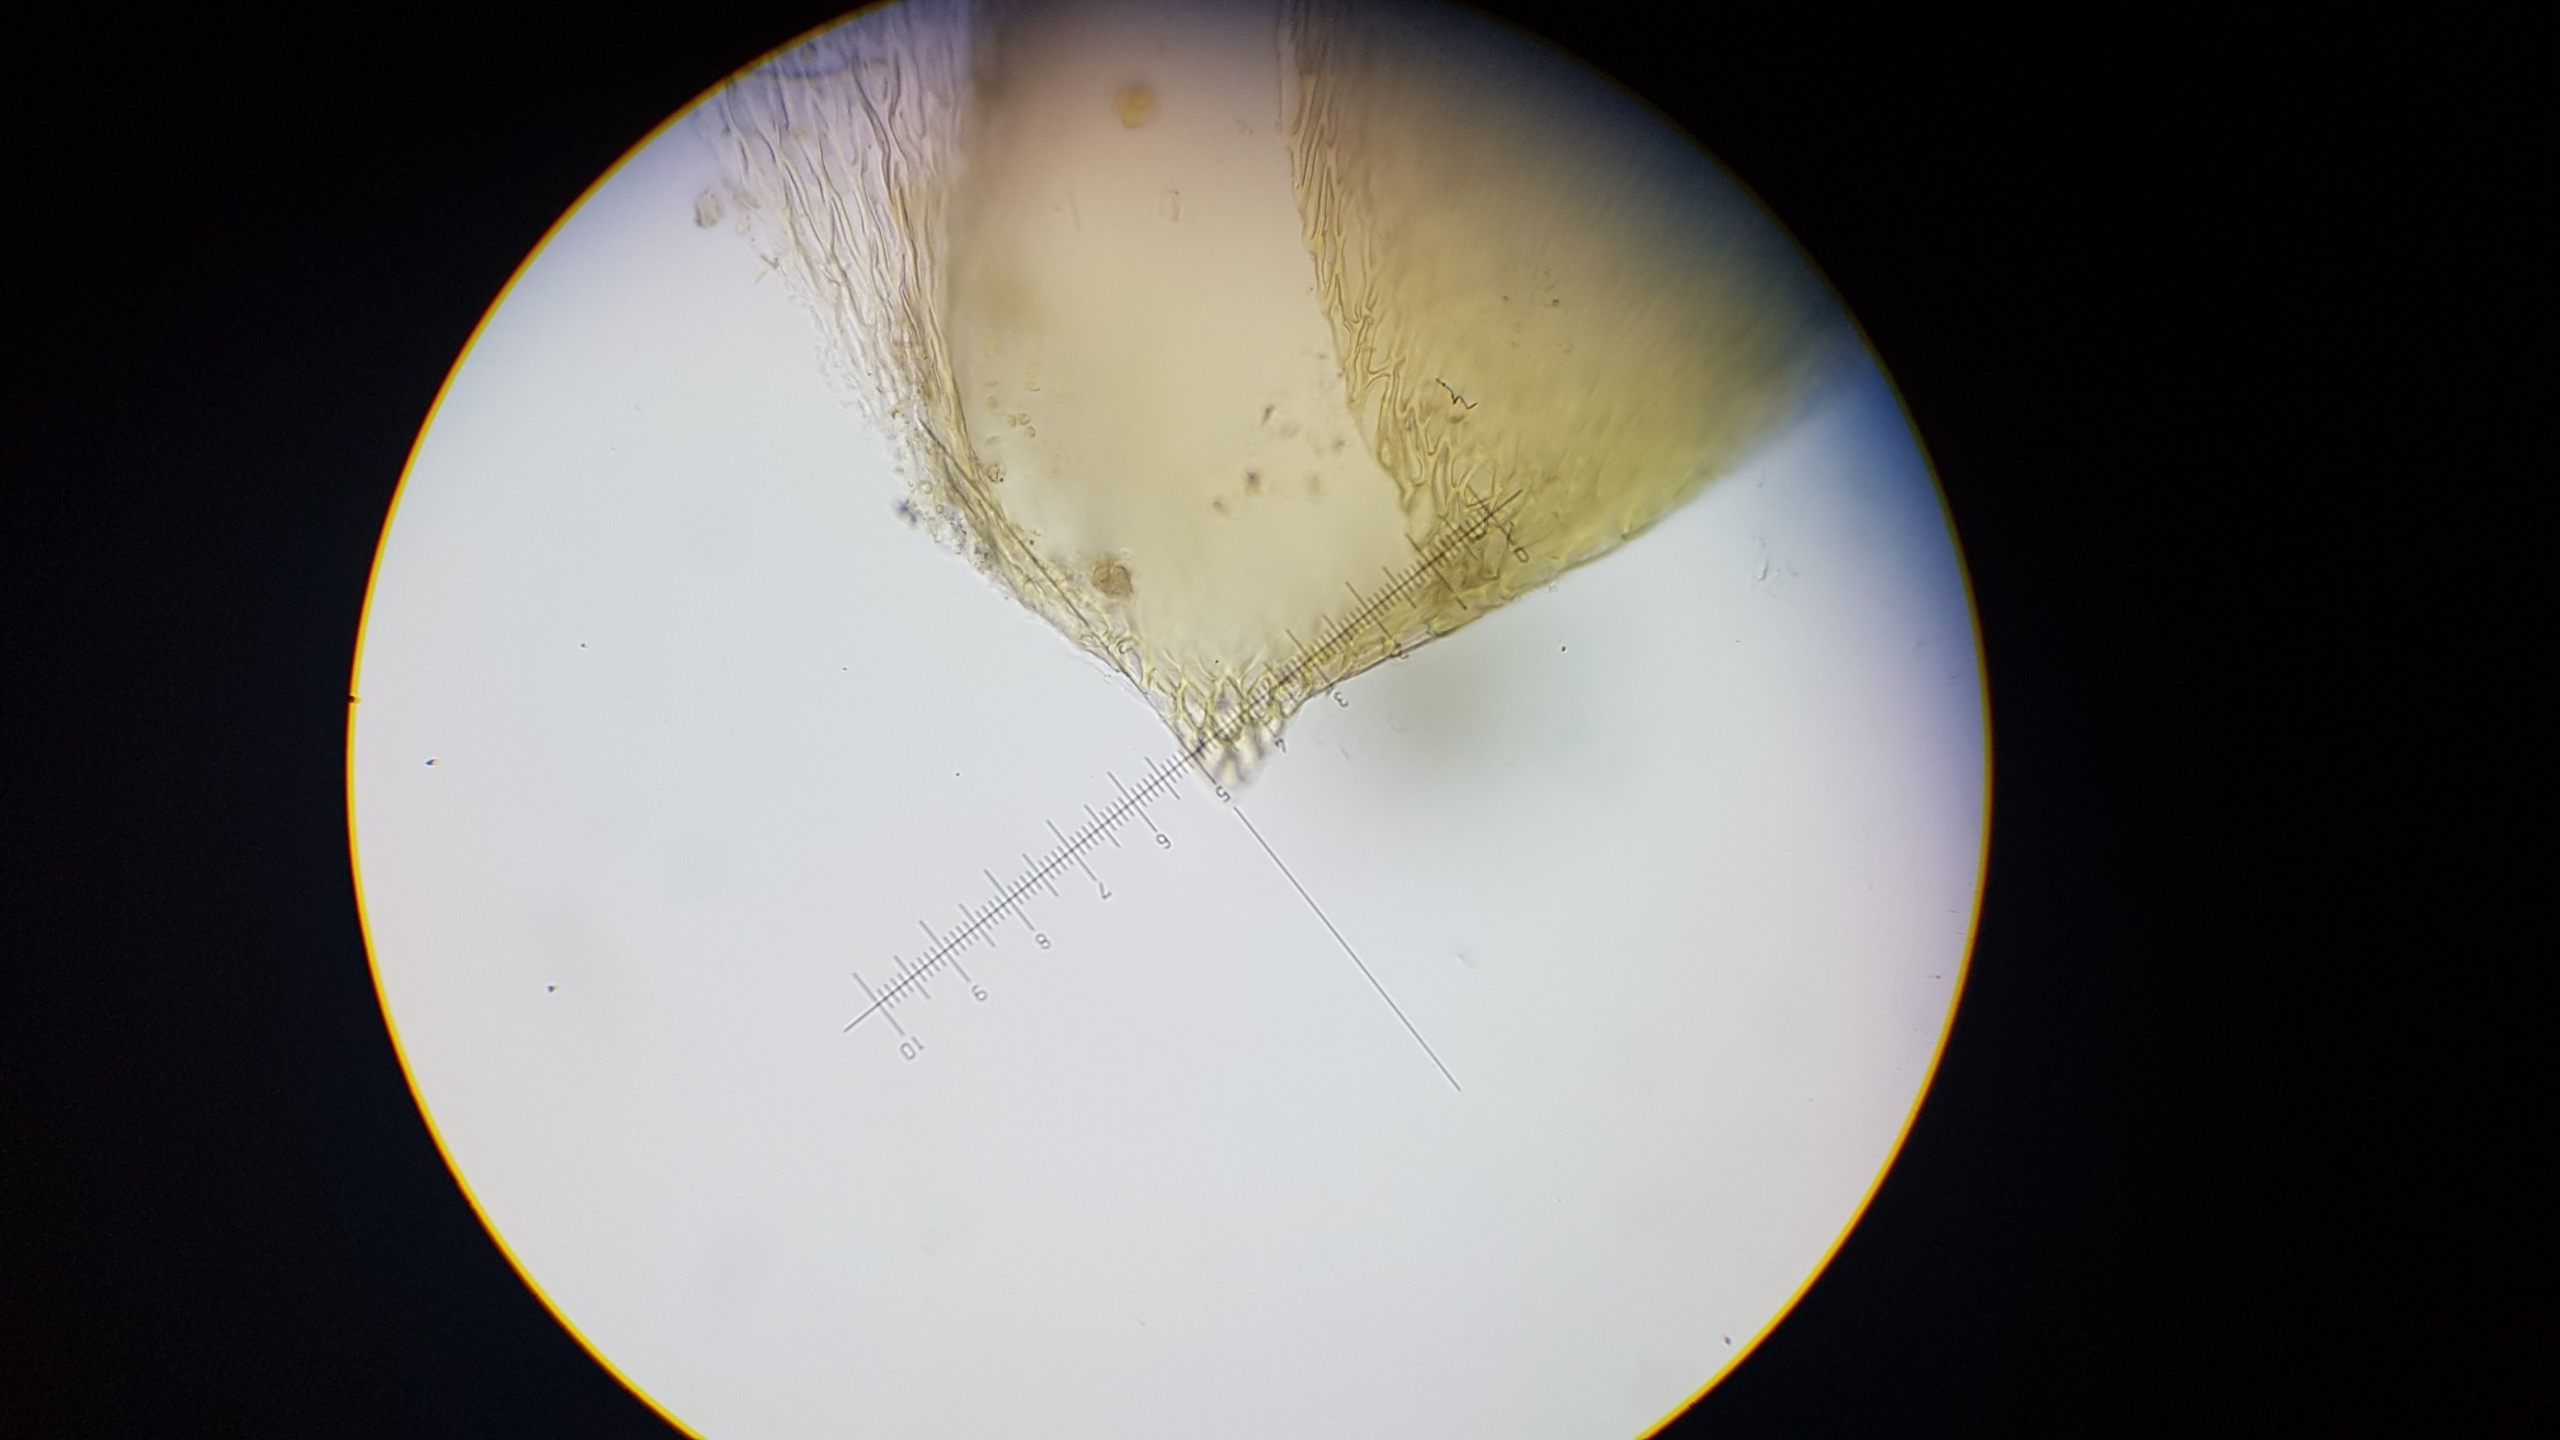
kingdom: Plantae
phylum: Bryophyta
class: Bryopsida
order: Hypnales
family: Brachytheciaceae
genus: Rhynchostegium
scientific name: Rhynchostegium murale
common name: Mur-langnæb
